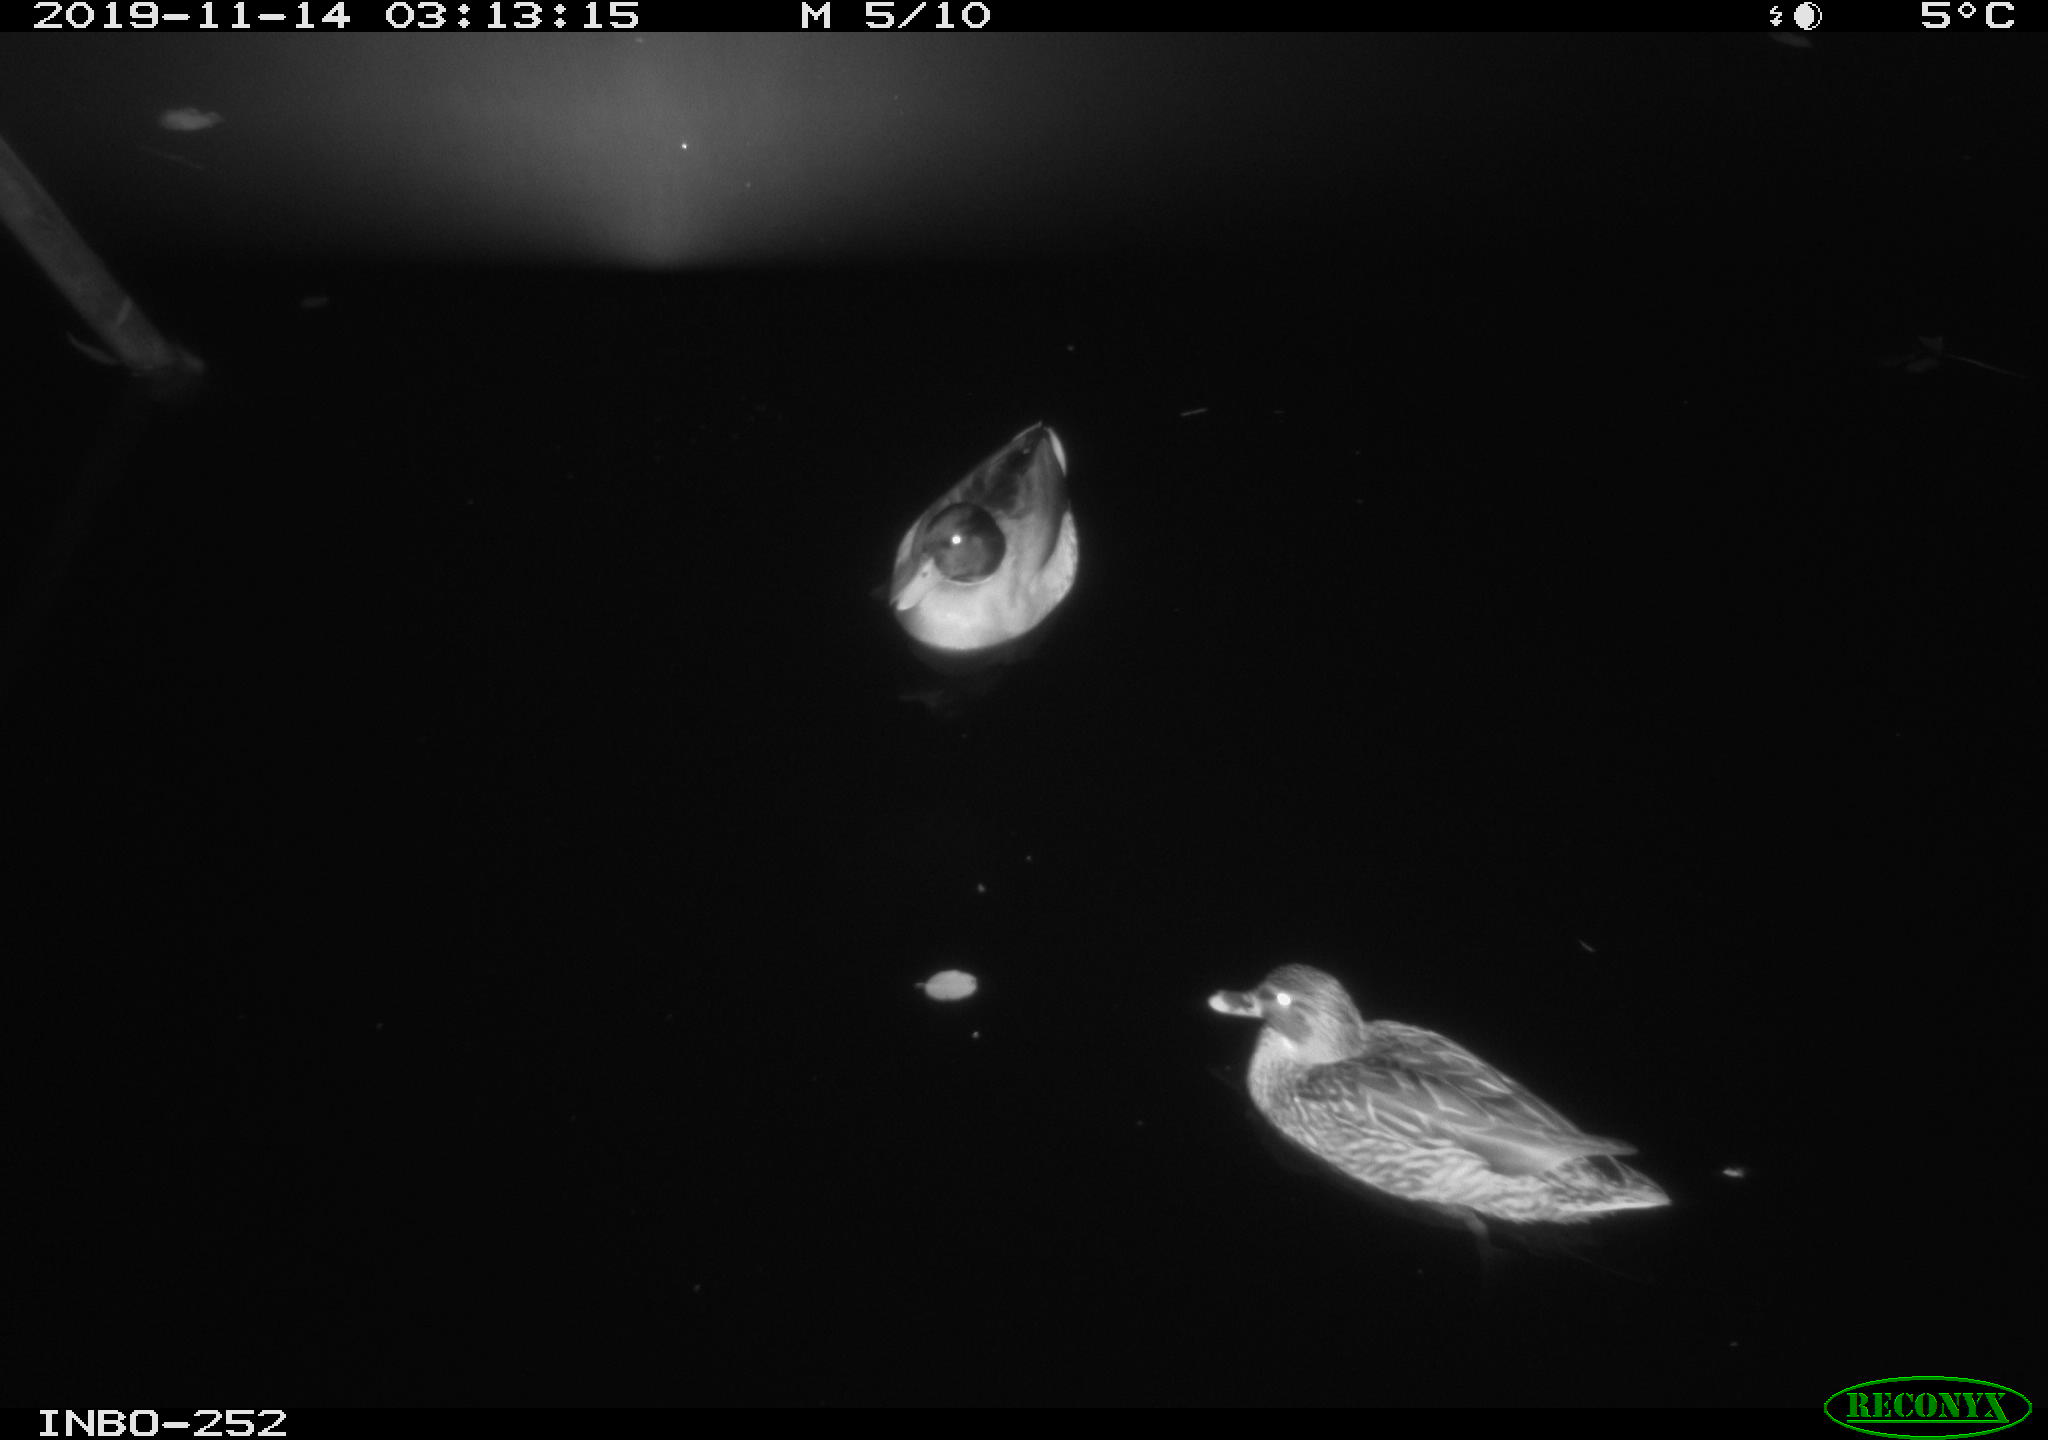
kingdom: Animalia
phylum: Chordata
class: Aves
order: Anseriformes
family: Anatidae
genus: Anas
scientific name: Anas platyrhynchos
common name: Mallard
